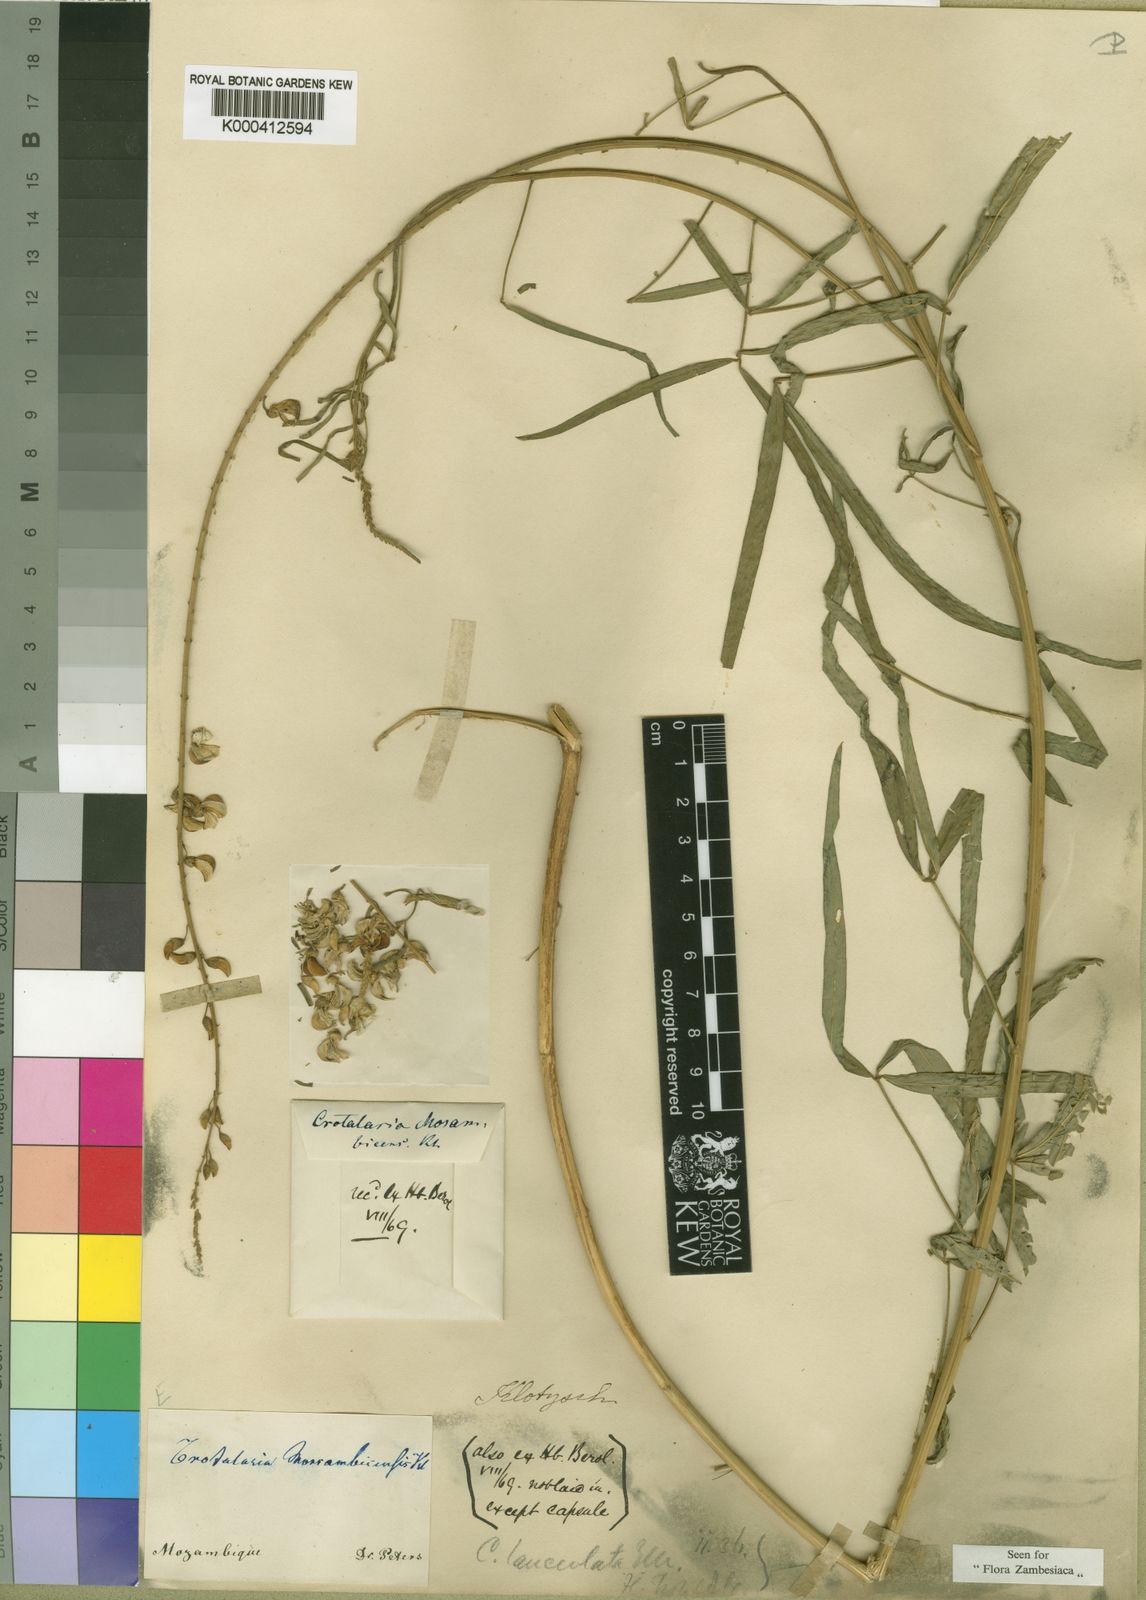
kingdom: Plantae
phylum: Tracheophyta
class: Magnoliopsida
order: Fabales
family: Fabaceae
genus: Crotalaria
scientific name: Crotalaria lanceolata
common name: Lanceleaf rattlebox
